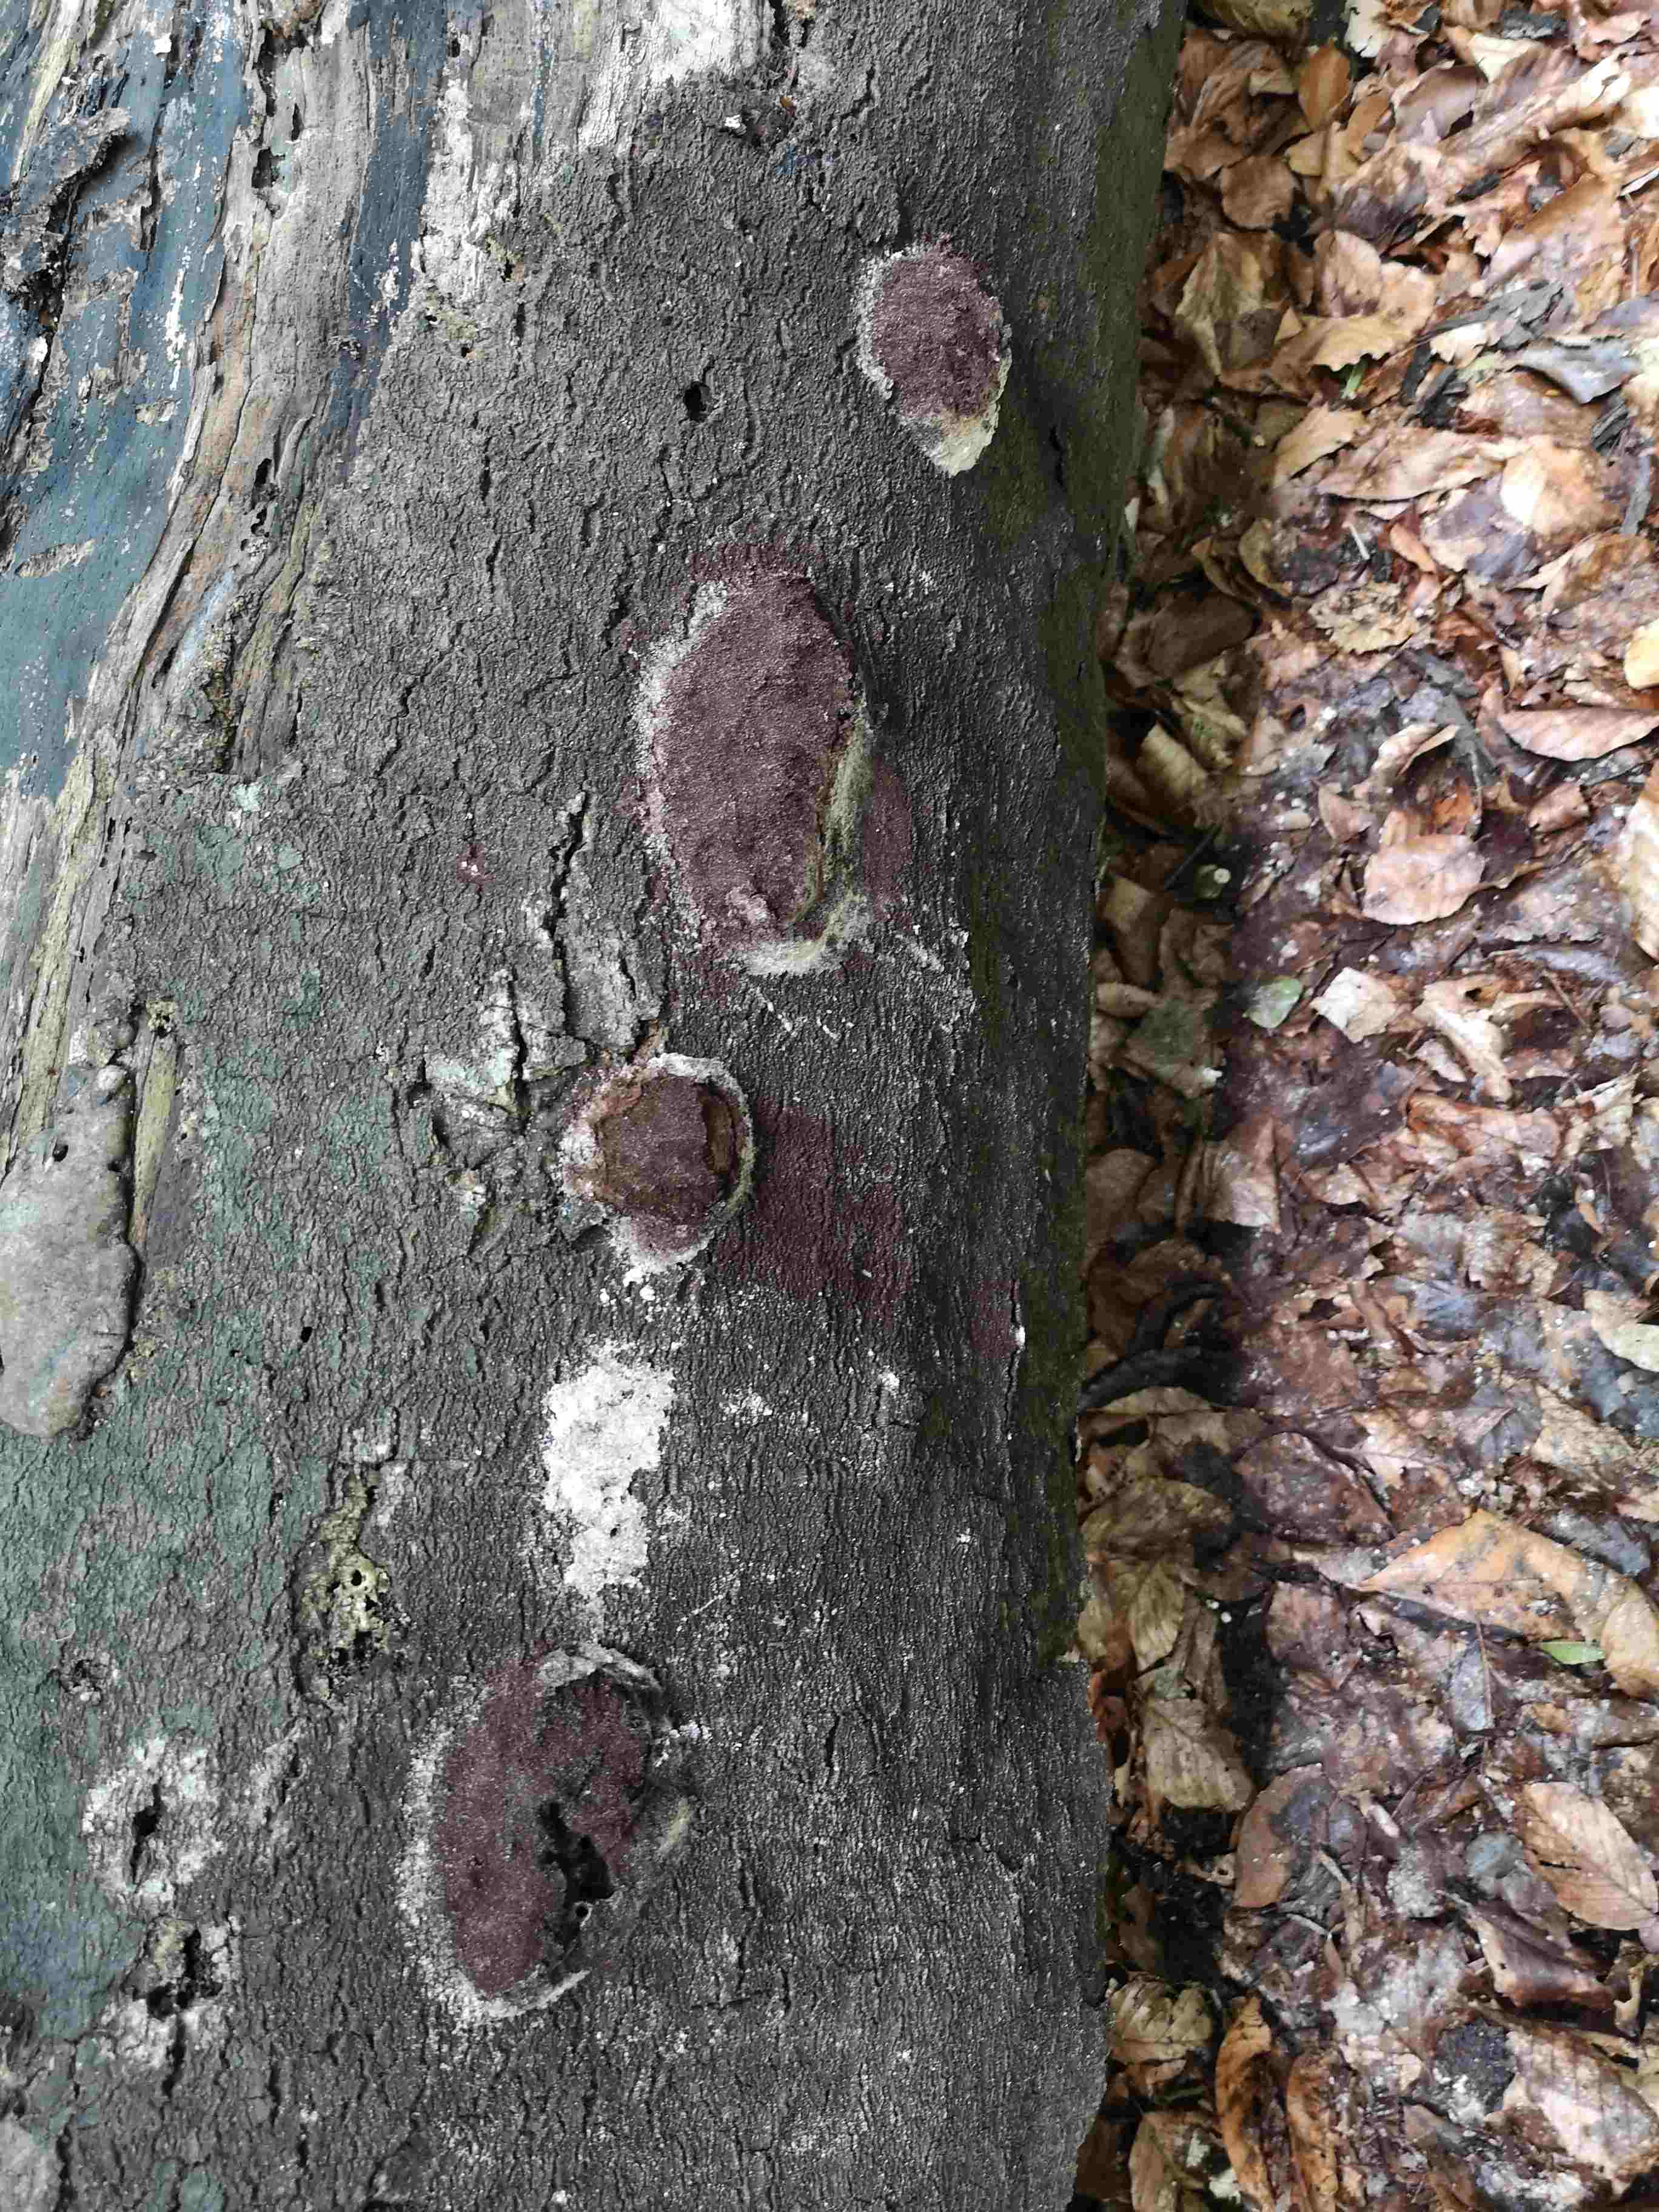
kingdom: Protozoa
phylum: Mycetozoa
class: Myxomycetes
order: Physarales
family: Physaraceae
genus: Fuligo
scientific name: Fuligo septica
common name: gul troldsmør
